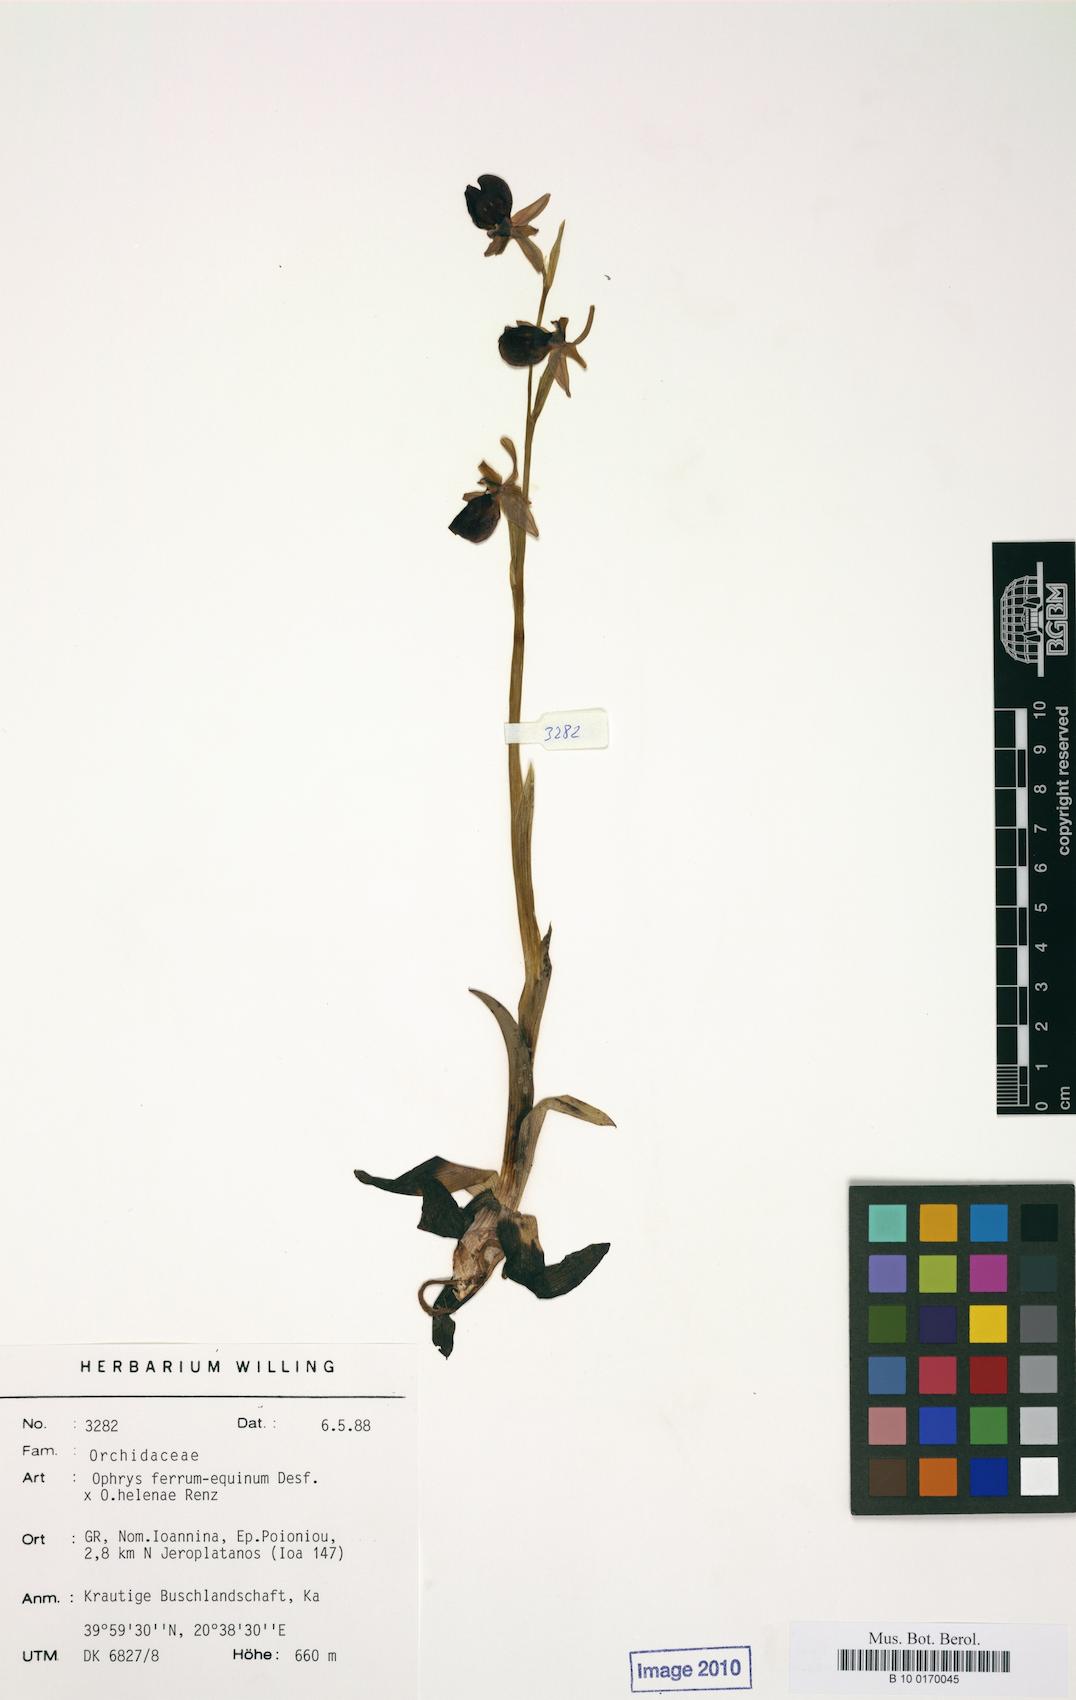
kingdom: Plantae
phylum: Tracheophyta
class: Liliopsida
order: Asparagales
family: Orchidaceae
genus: Ophrys
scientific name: Ophrys ferrum-equinum
